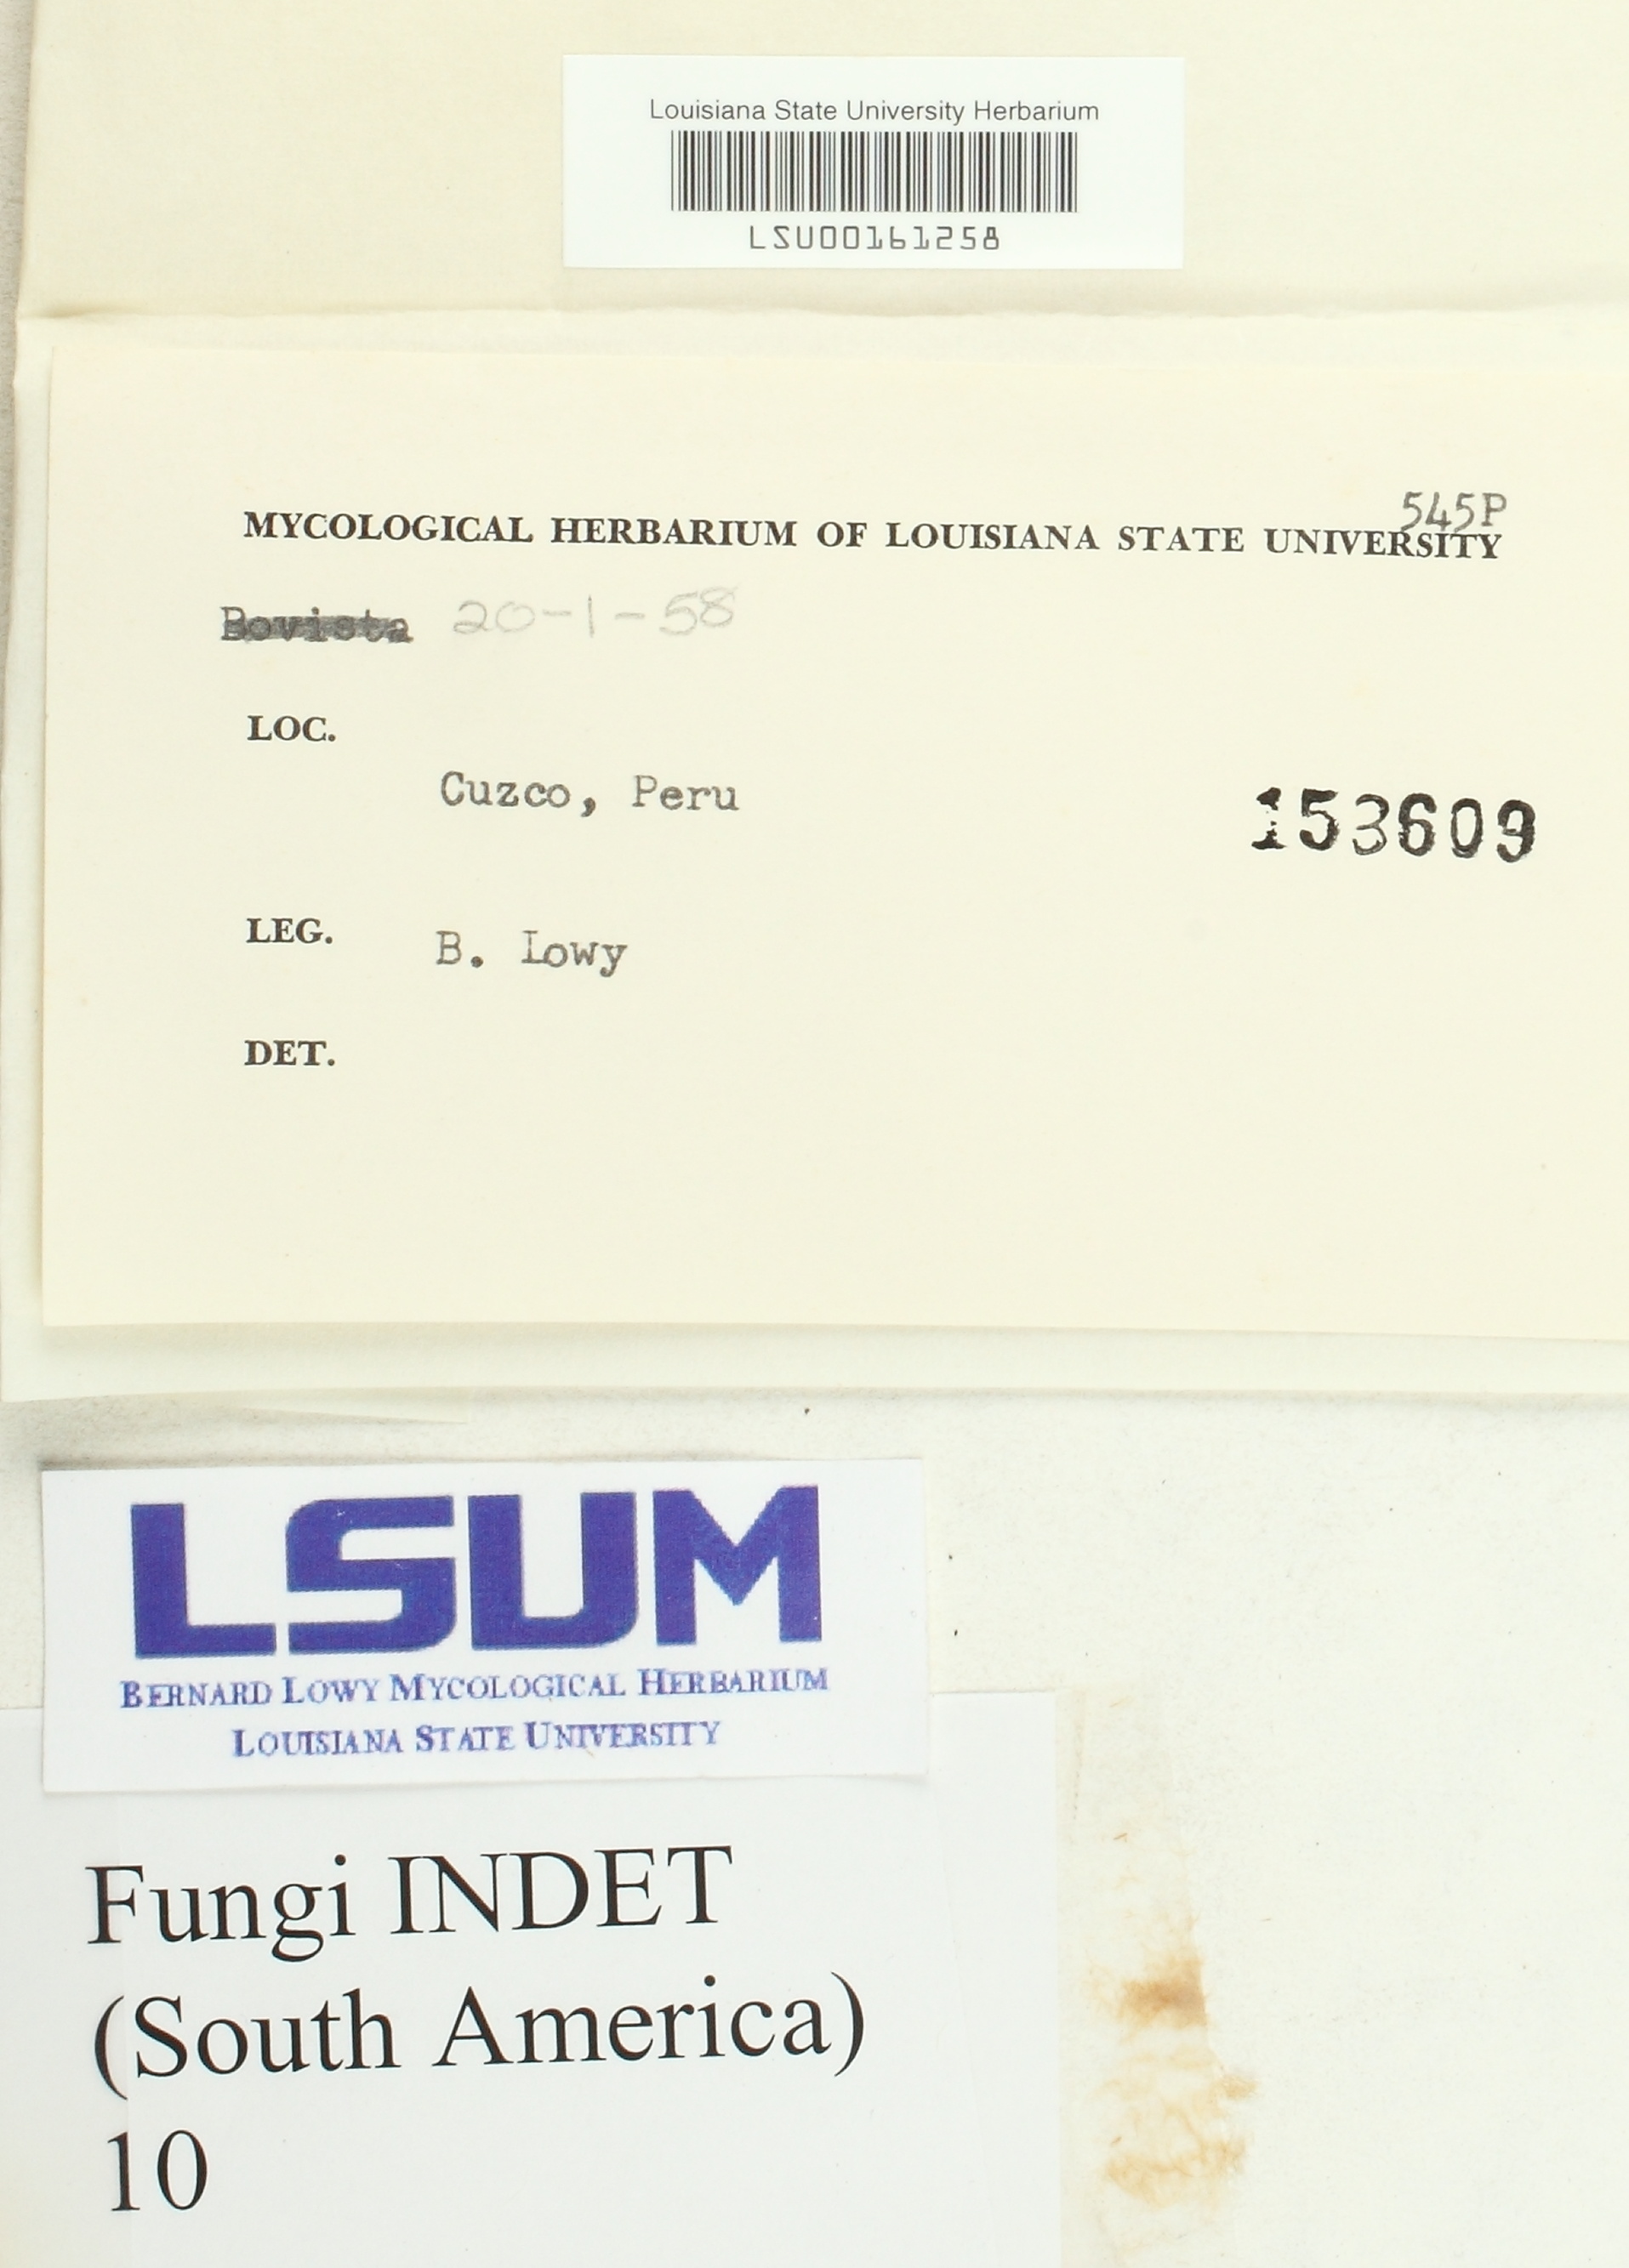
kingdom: Fungi
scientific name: Fungi
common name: Fungi
